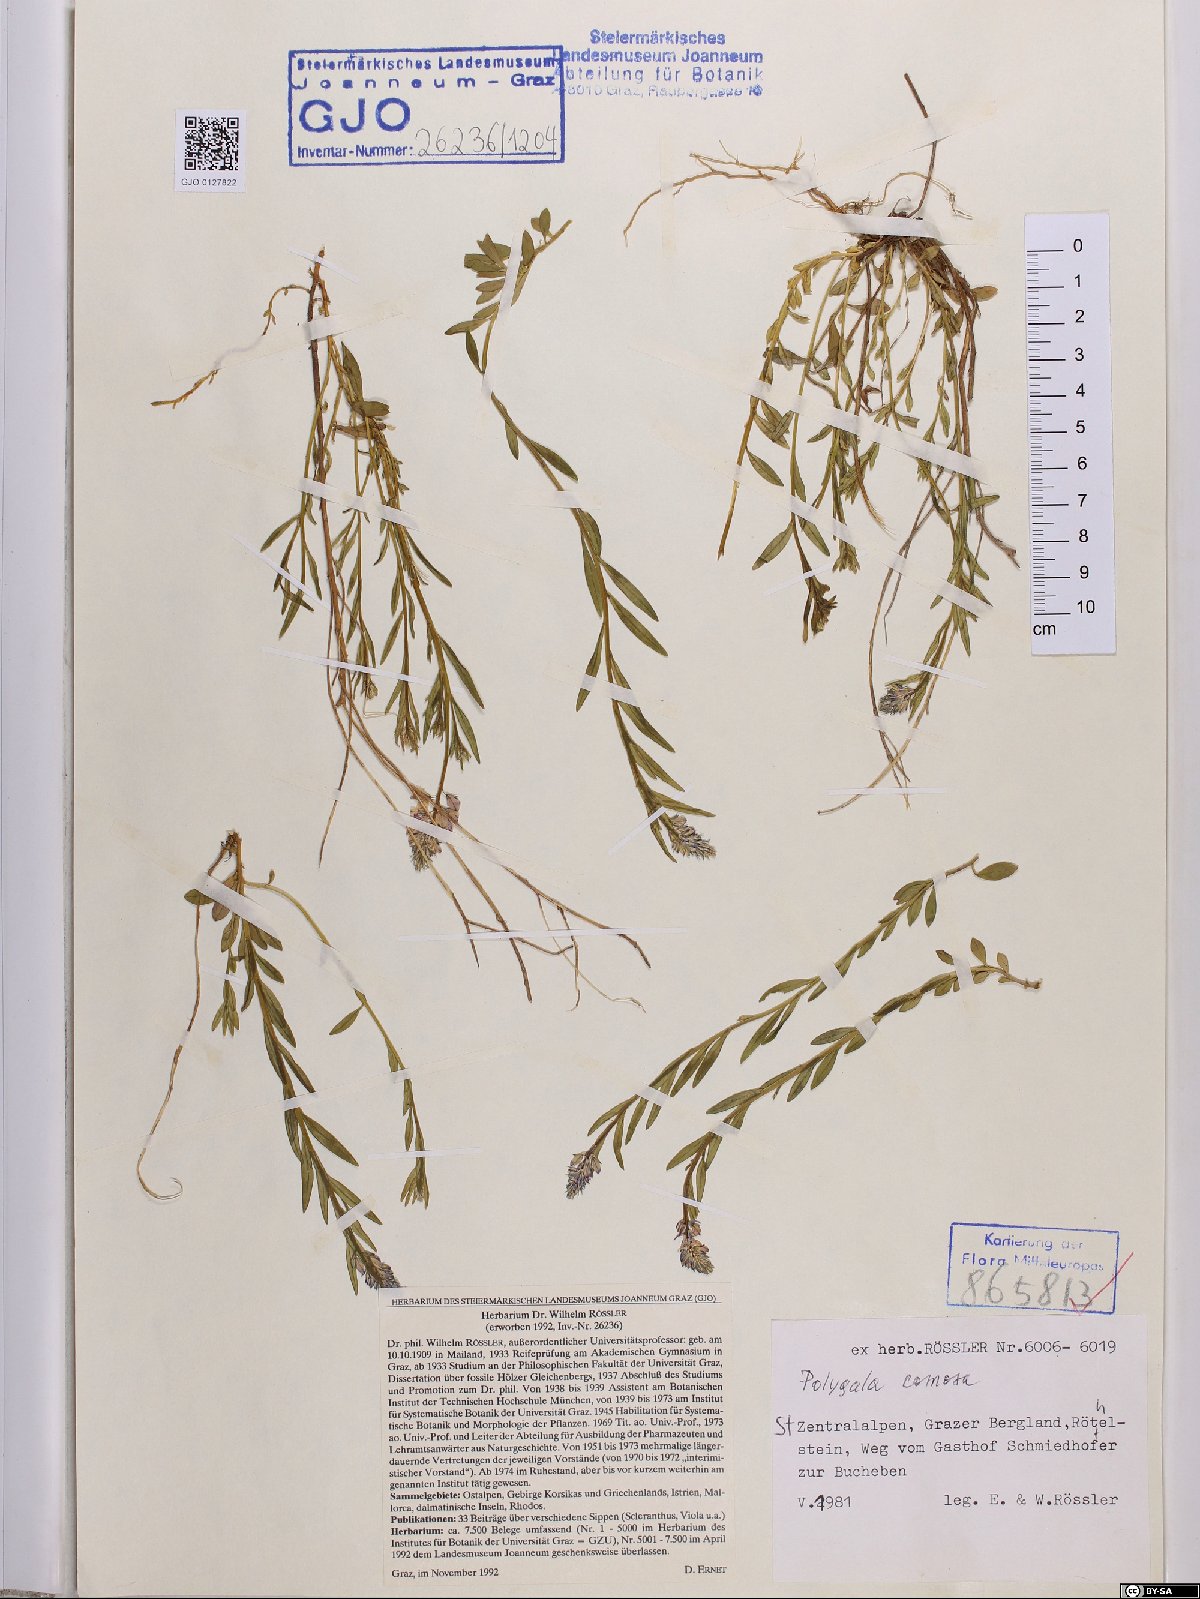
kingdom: Plantae
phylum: Tracheophyta
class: Magnoliopsida
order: Fabales
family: Polygalaceae
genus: Polygala
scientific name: Polygala comosa
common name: Tufted milkwort
